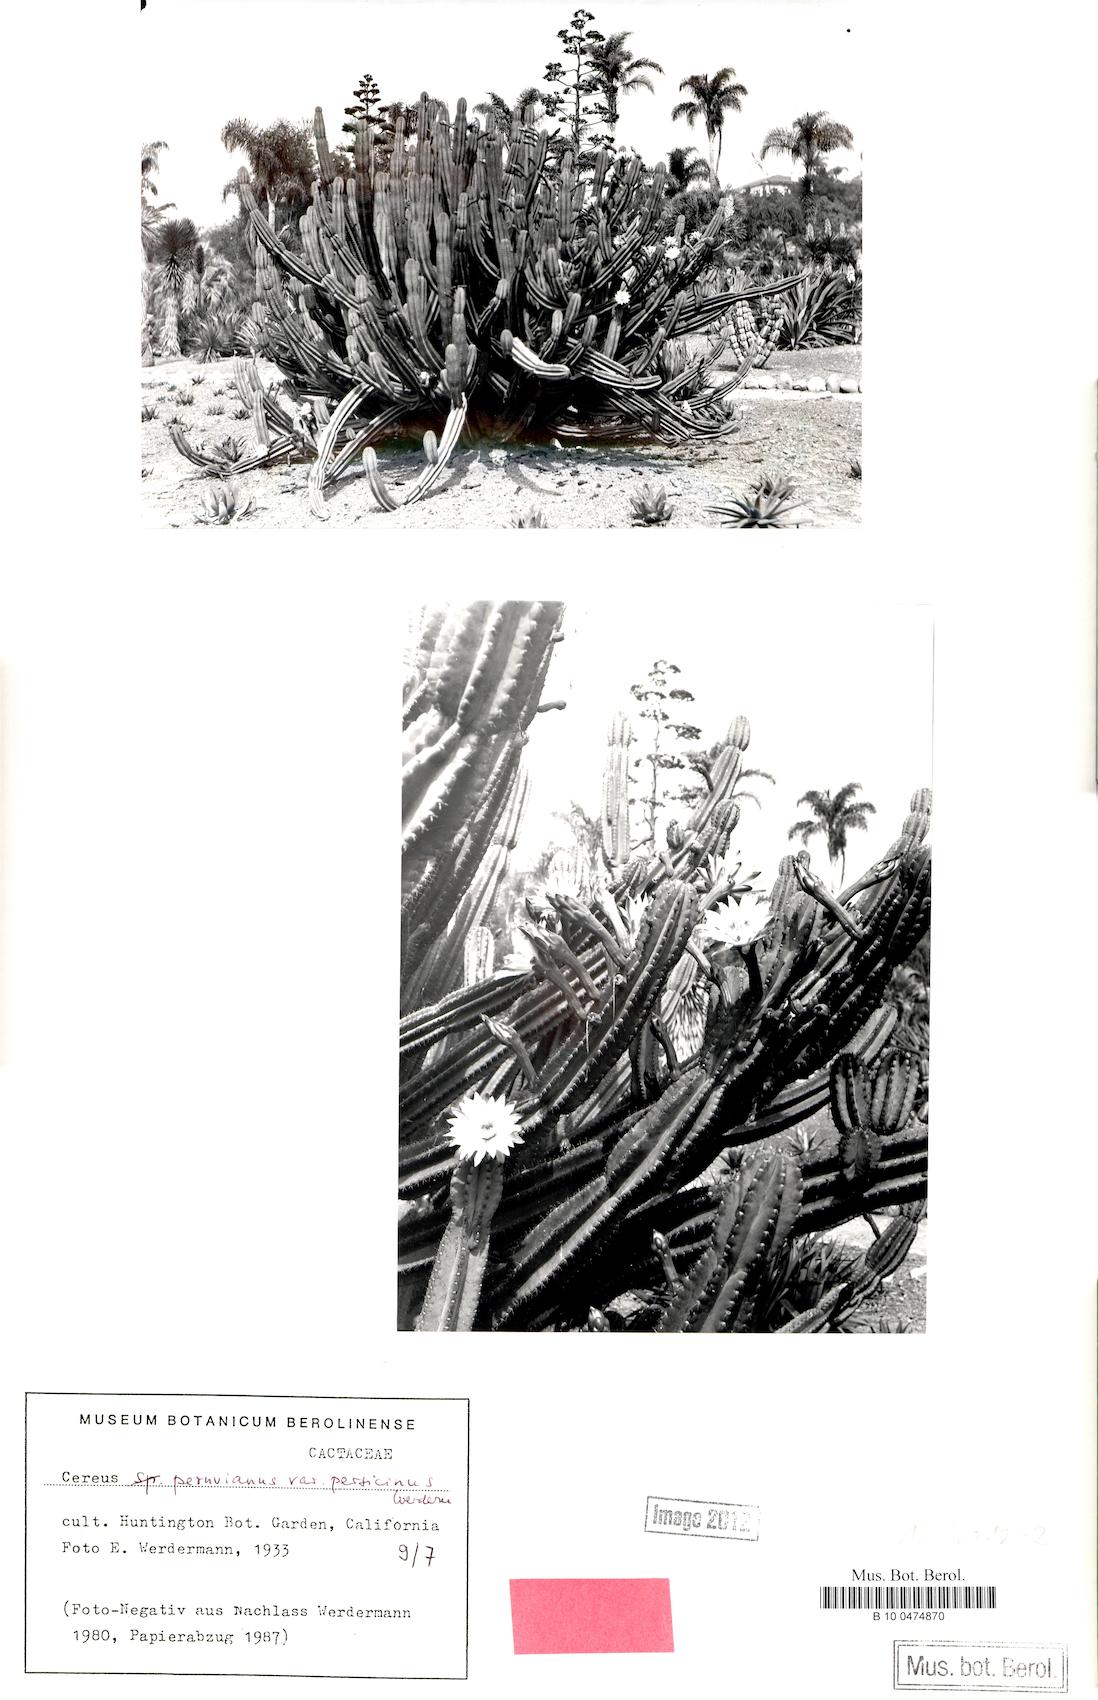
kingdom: Plantae
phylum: Tracheophyta
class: Magnoliopsida
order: Caryophyllales
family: Cactaceae
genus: Cereus
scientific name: Cereus hildmannianus
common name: Hedge cactus
